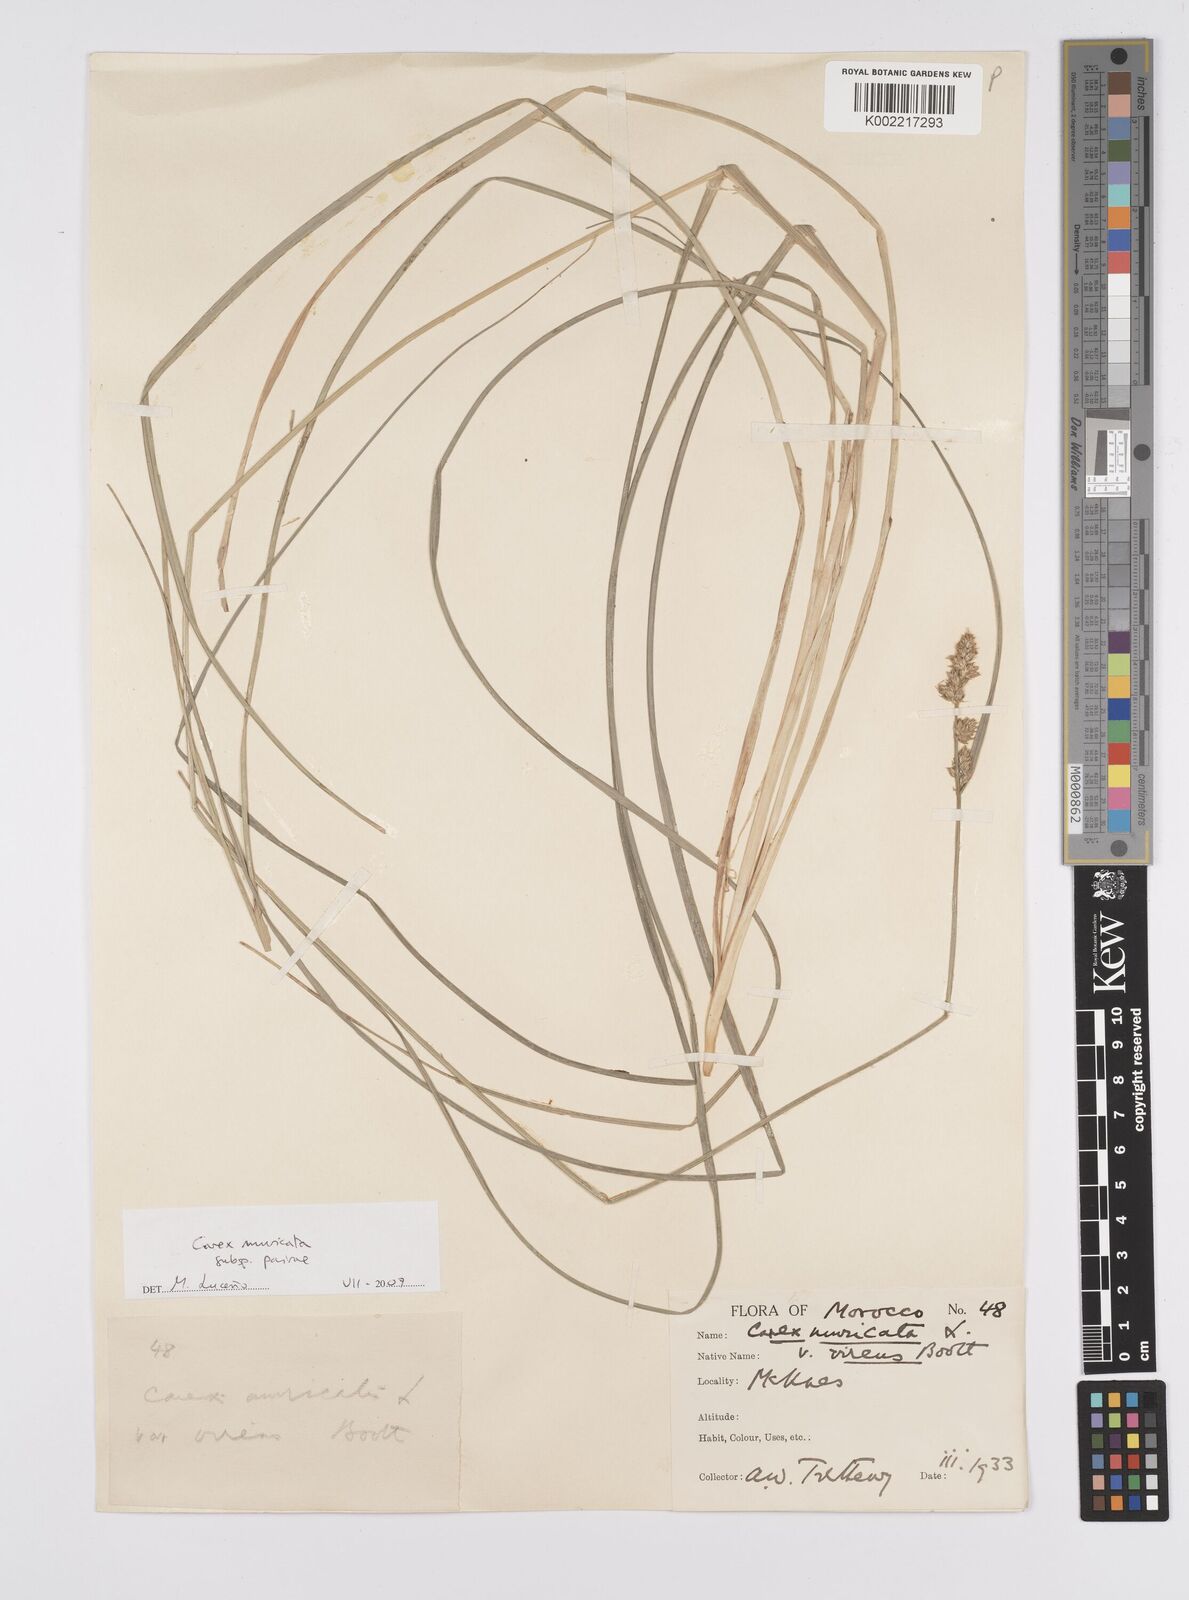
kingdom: Plantae
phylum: Tracheophyta
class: Liliopsida
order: Poales
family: Cyperaceae
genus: Carex
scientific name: Carex muricata
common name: Rough sedge
